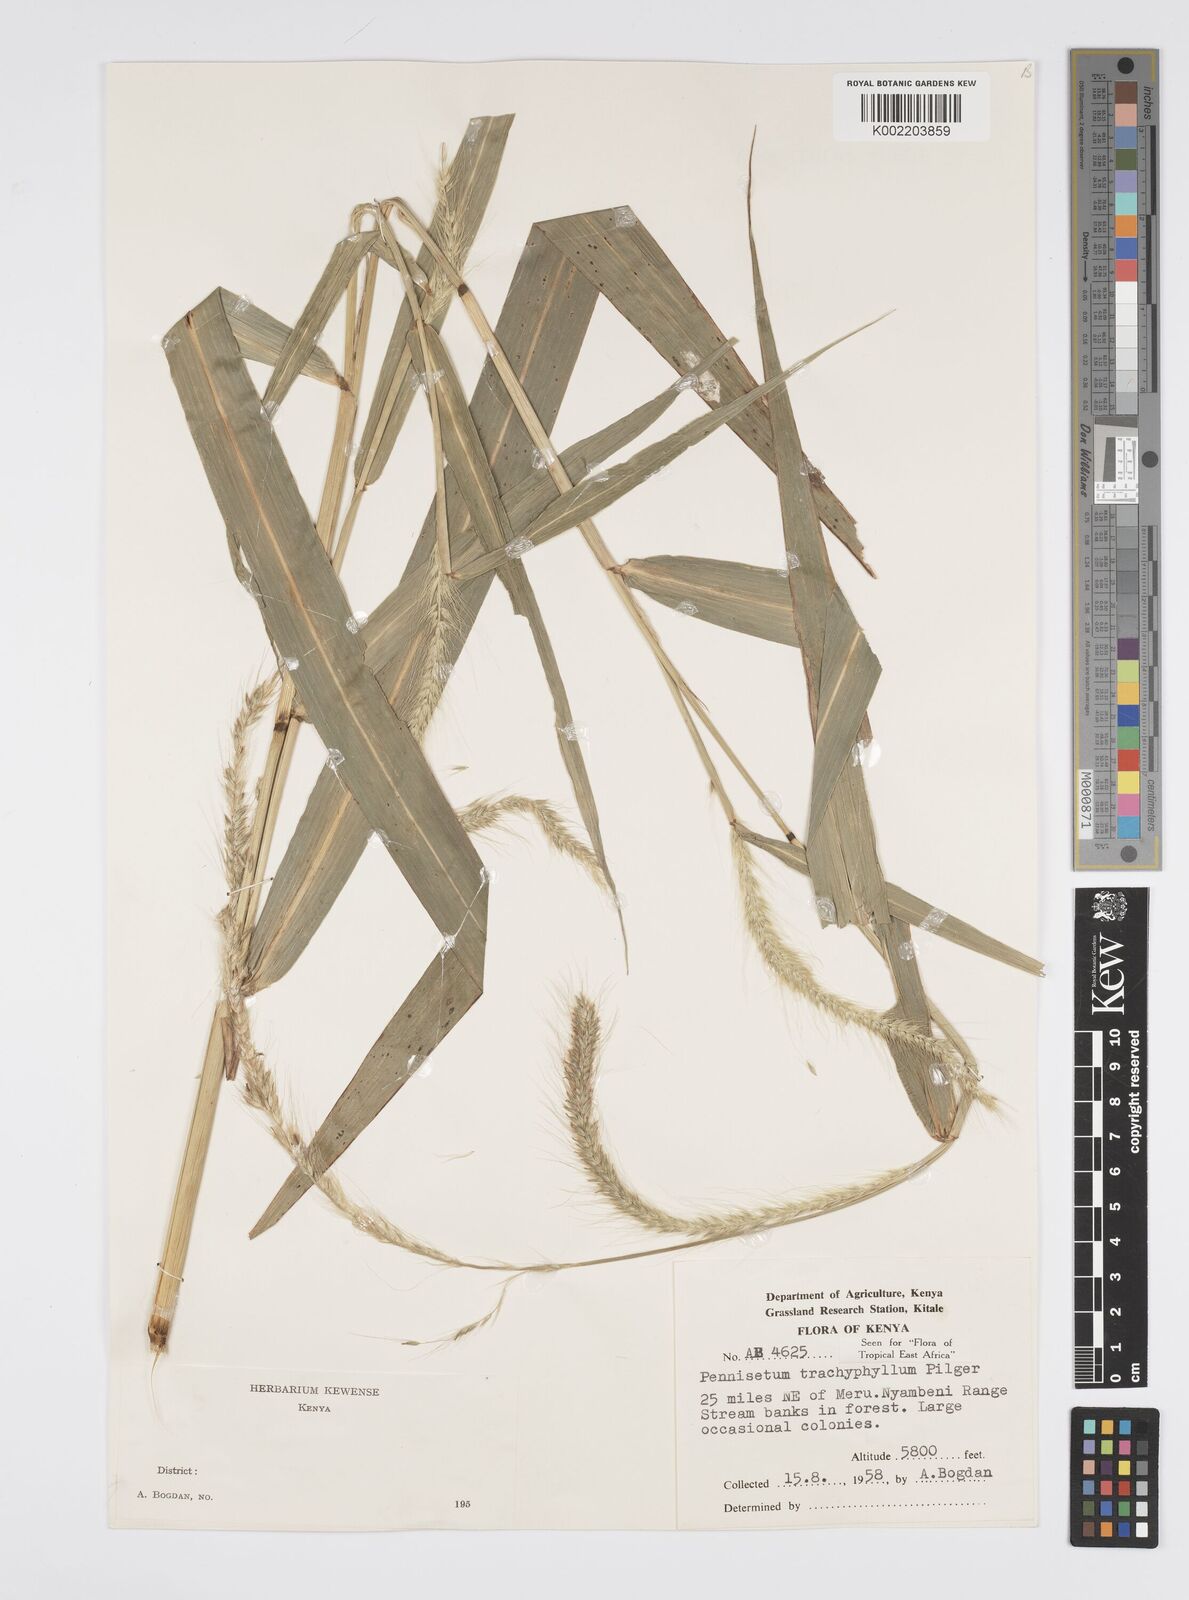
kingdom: Plantae
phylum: Tracheophyta
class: Liliopsida
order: Poales
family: Poaceae
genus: Cenchrus
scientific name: Cenchrus trachyphyllus
